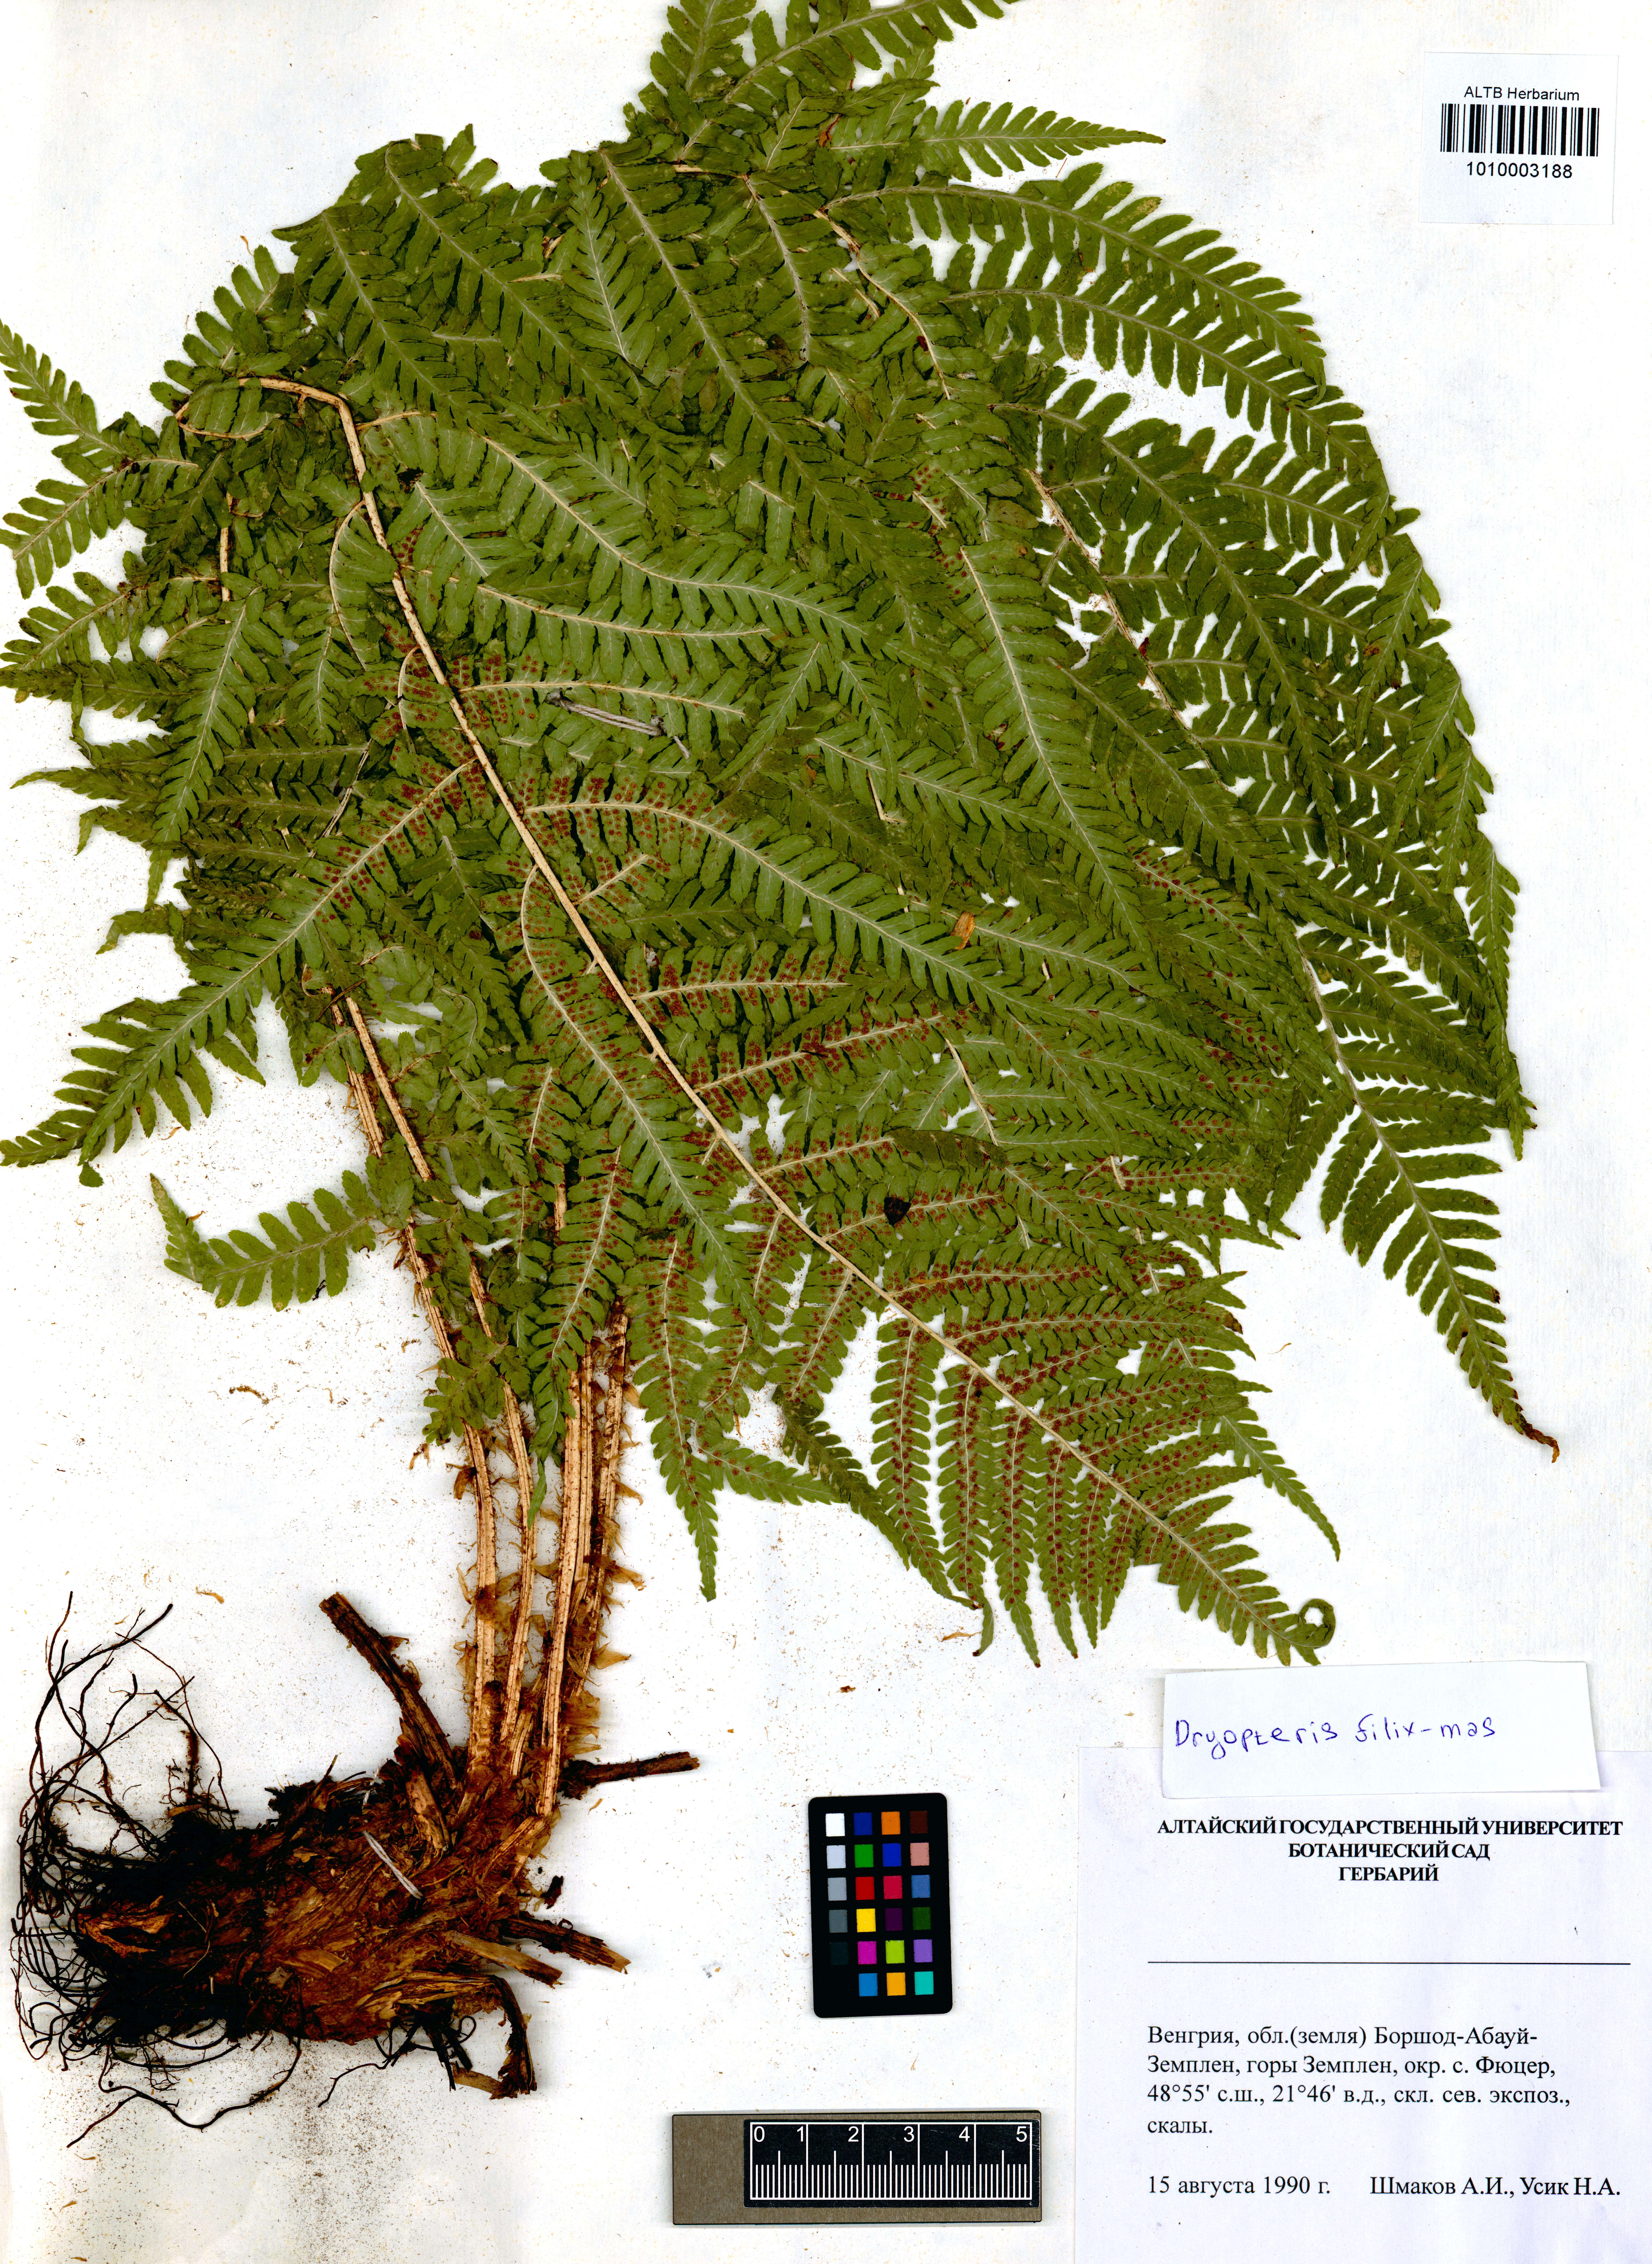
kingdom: Plantae
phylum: Tracheophyta
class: Polypodiopsida
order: Polypodiales
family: Dryopteridaceae
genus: Dryopteris
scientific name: Dryopteris filix-mas
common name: Male fern
